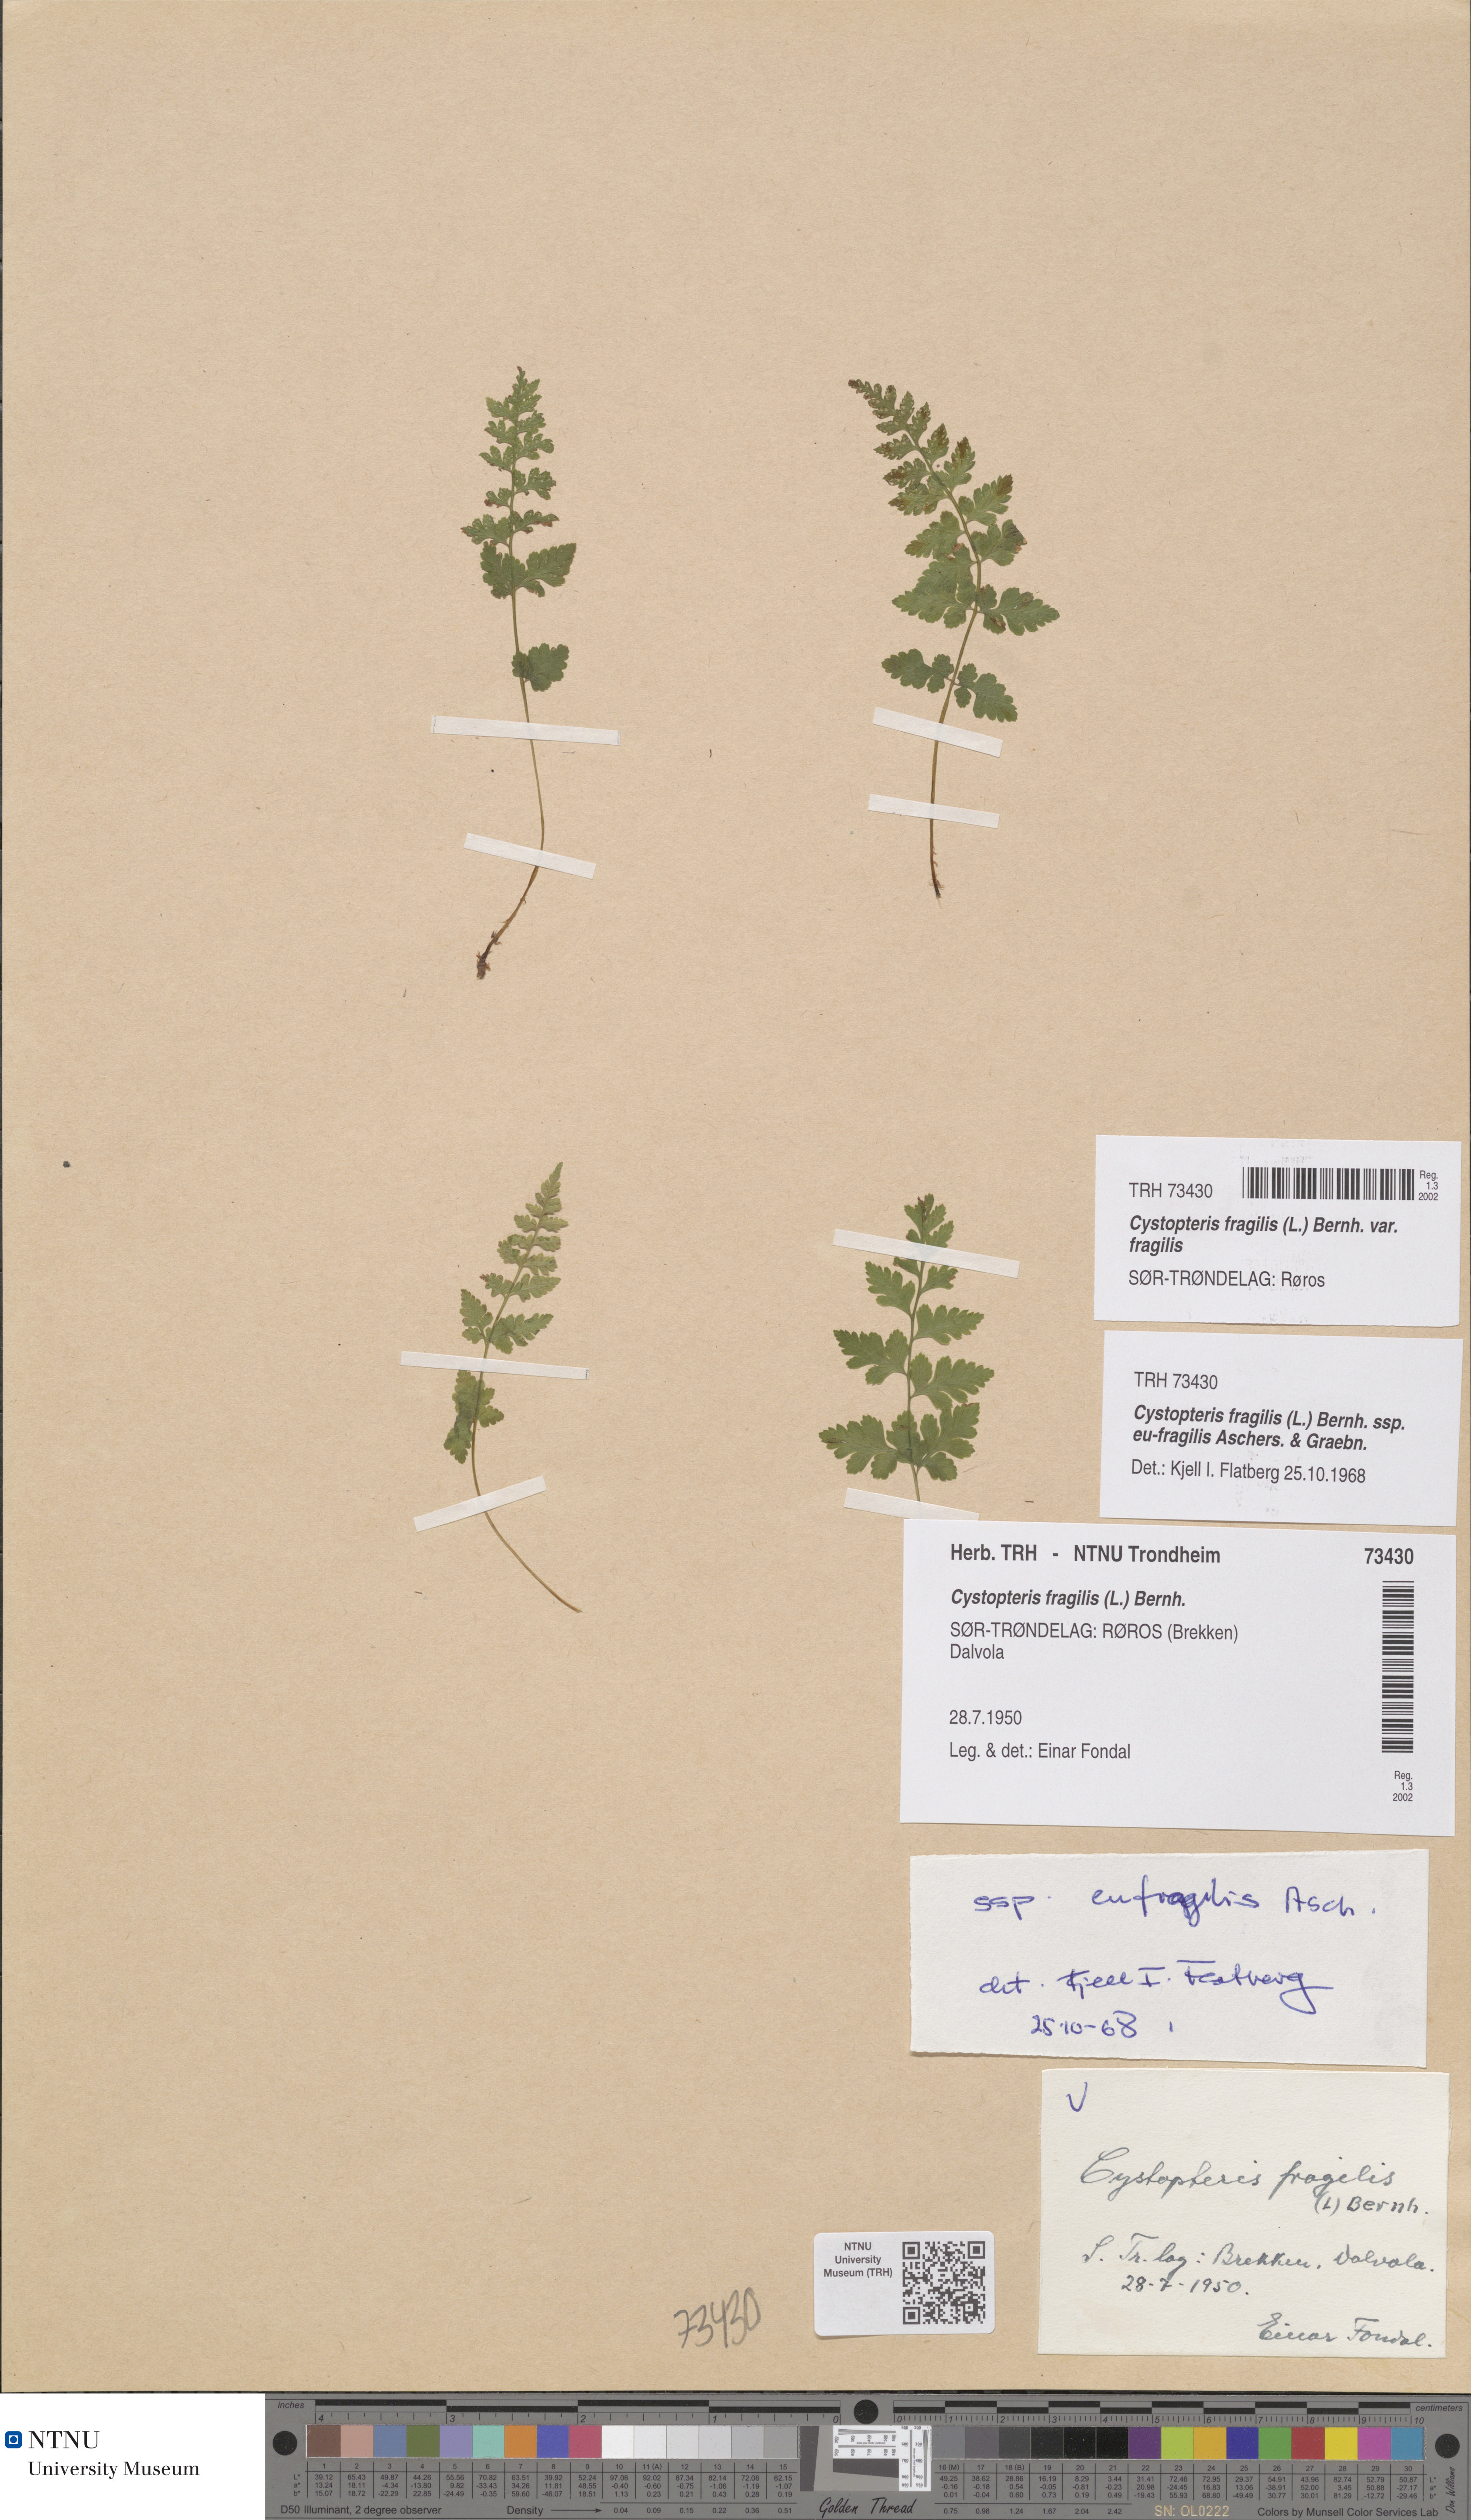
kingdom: Plantae
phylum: Tracheophyta
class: Polypodiopsida
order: Polypodiales
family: Cystopteridaceae
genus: Cystopteris
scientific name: Cystopteris fragilis
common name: Brittle bladder fern
